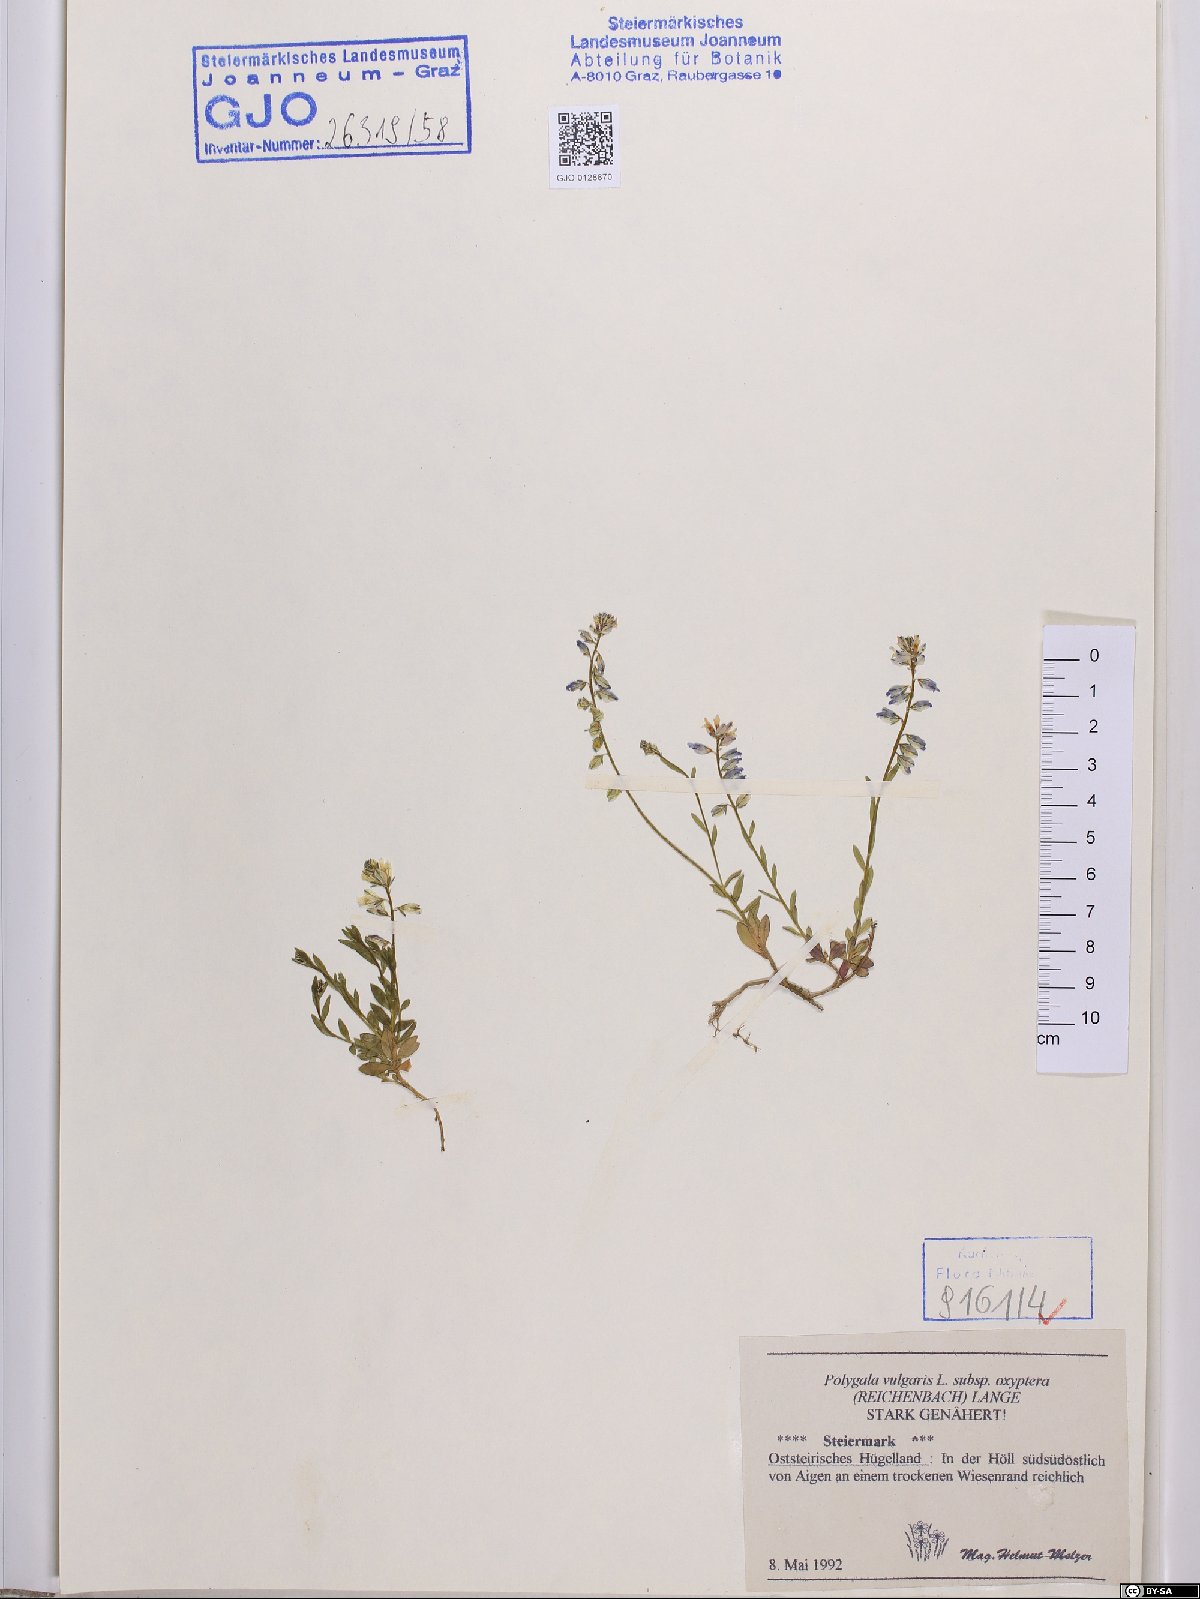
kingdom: Plantae
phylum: Tracheophyta
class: Magnoliopsida
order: Fabales
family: Polygalaceae
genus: Polygala
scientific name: Polygala vulgaris
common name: Common milkwort
